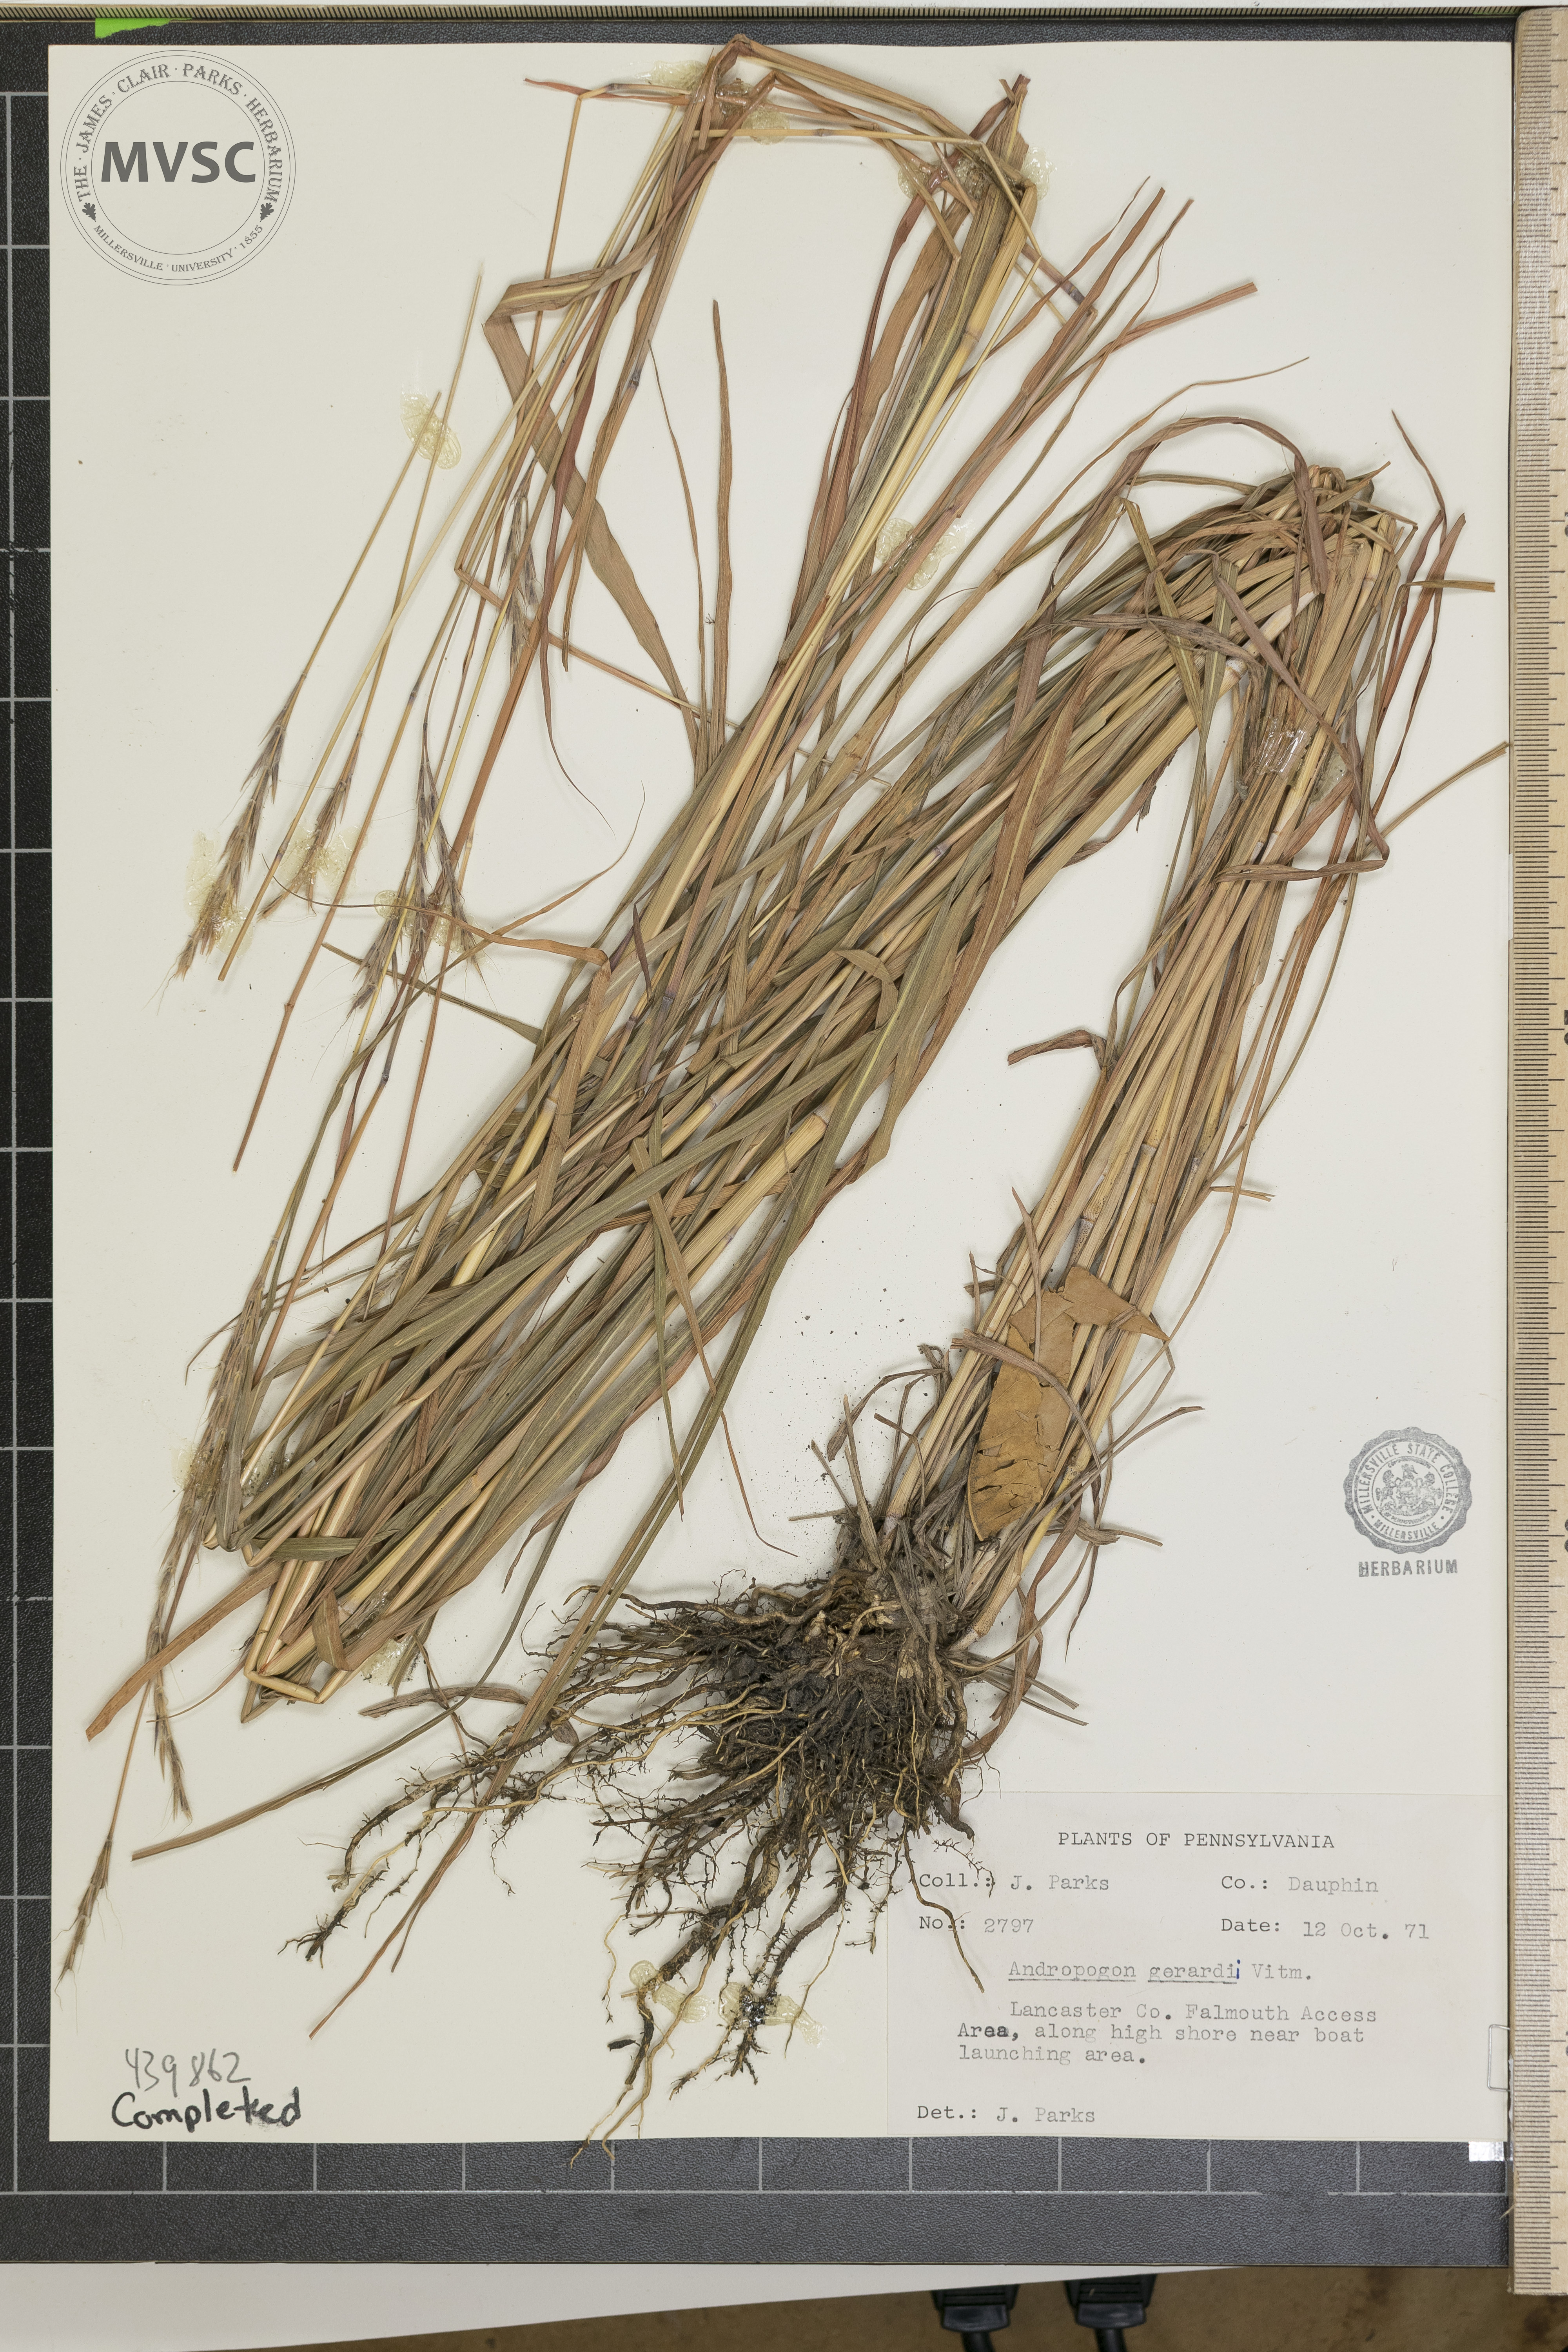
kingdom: Plantae
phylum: Tracheophyta
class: Liliopsida
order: Poales
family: Poaceae
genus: Andropogon
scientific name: Andropogon gerardi
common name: Big bluestem
